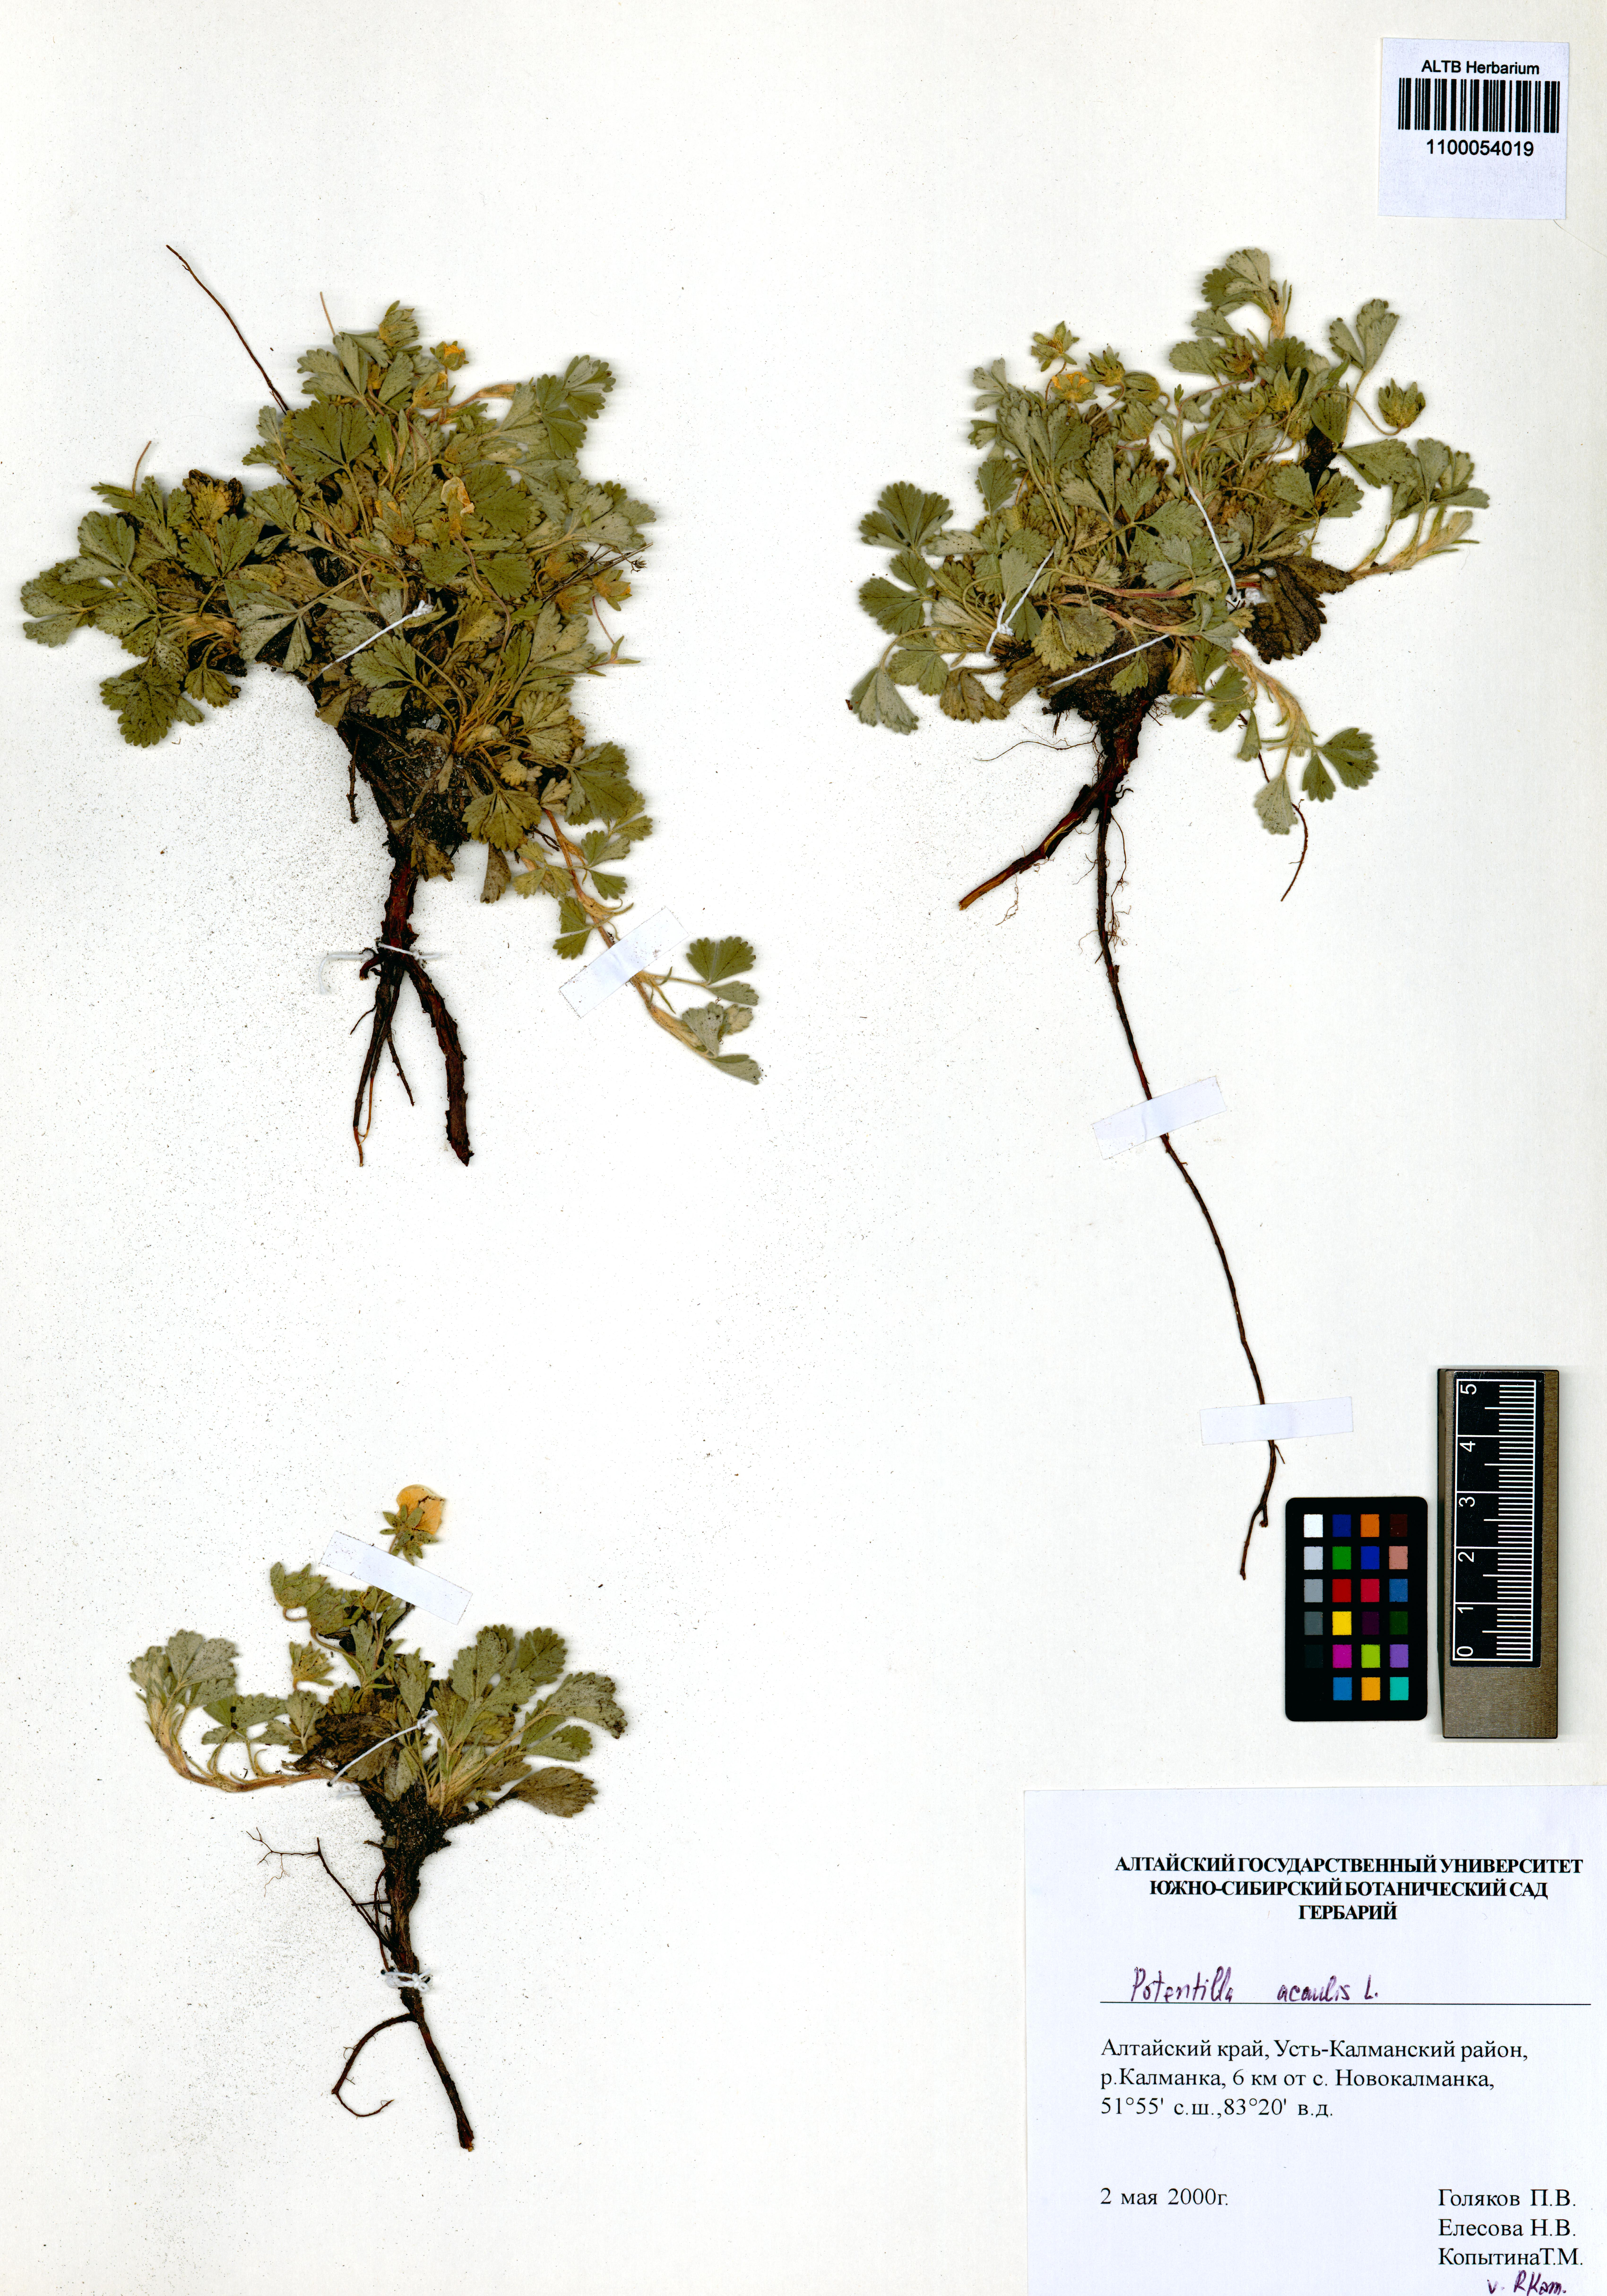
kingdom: Plantae
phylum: Tracheophyta
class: Magnoliopsida
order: Rosales
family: Rosaceae
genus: Potentilla
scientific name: Potentilla acaulis
